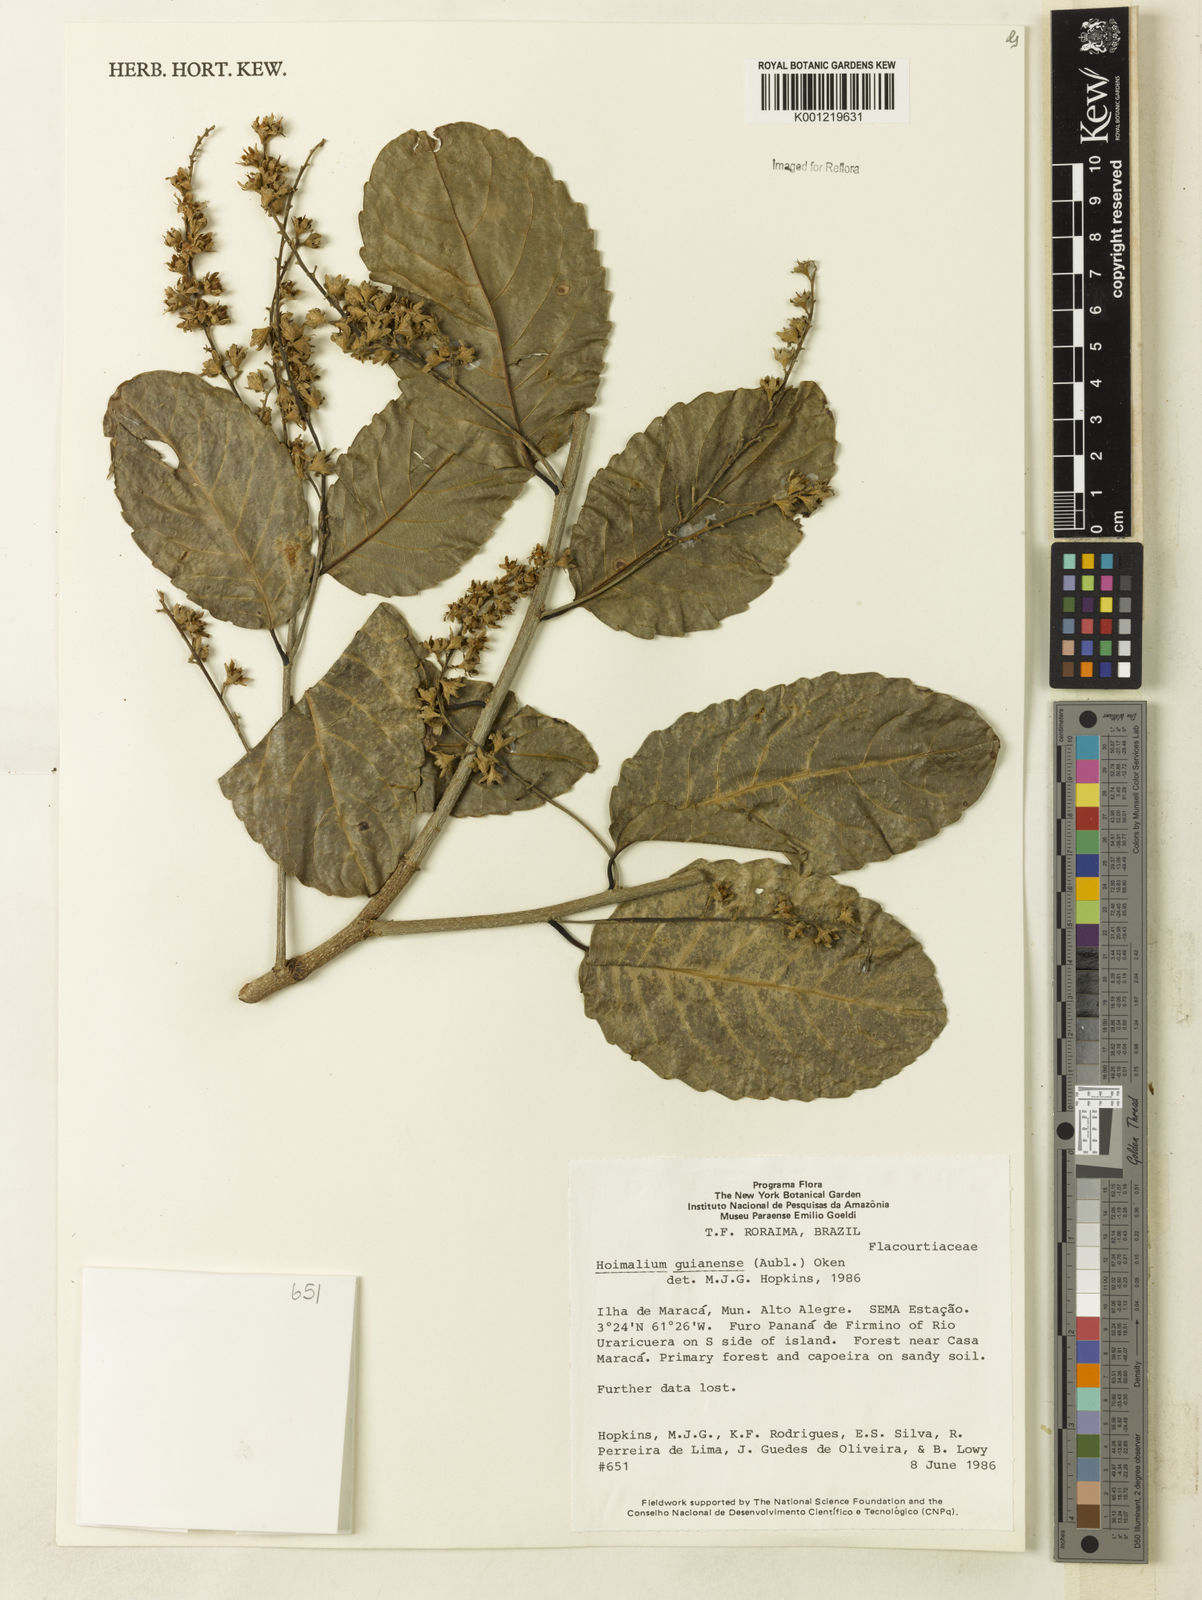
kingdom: Plantae
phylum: Tracheophyta
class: Magnoliopsida
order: Malpighiales
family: Salicaceae
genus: Homalium
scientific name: Homalium guianense
